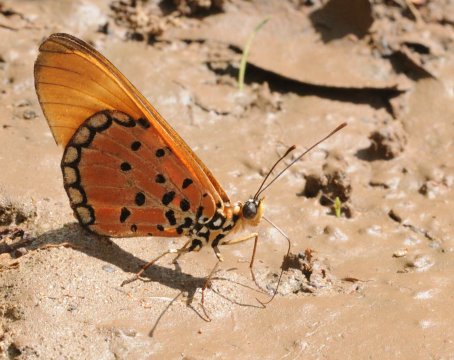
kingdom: Animalia
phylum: Arthropoda
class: Insecta
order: Lepidoptera
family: Nymphalidae
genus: Acraea
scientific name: Acraea oncaea
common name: Window Acraea
